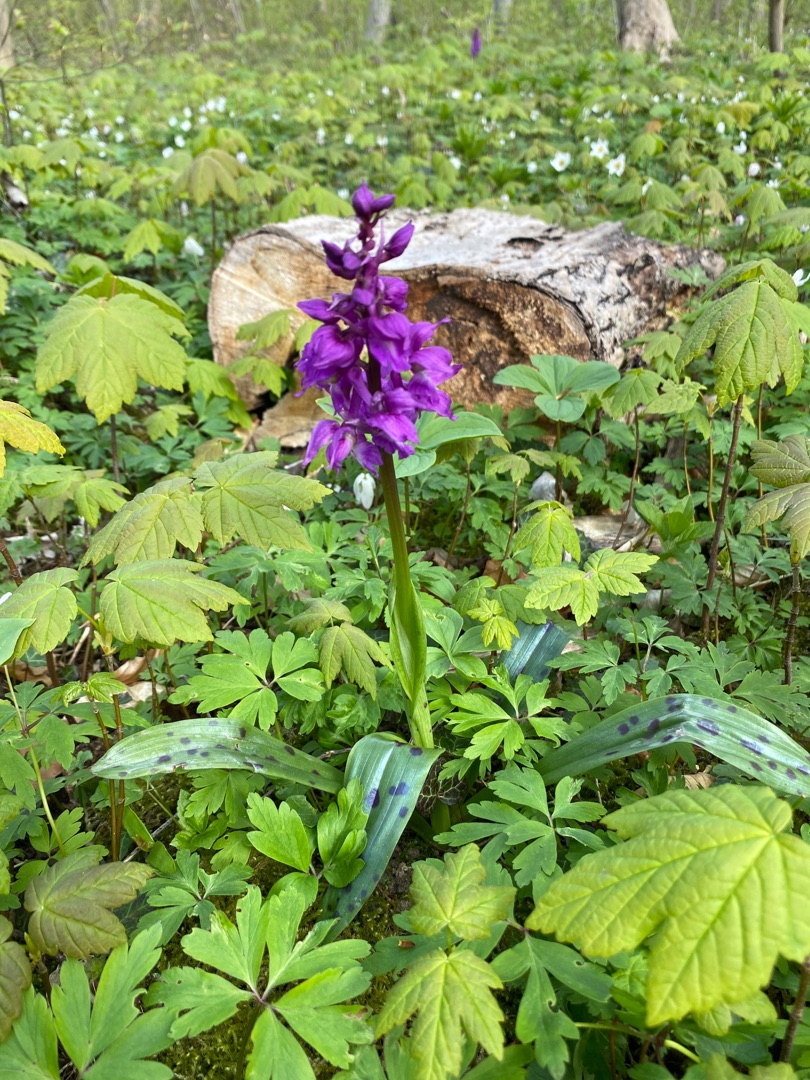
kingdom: Plantae
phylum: Tracheophyta
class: Liliopsida
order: Asparagales
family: Orchidaceae
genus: Orchis
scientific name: Orchis mascula
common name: Tyndakset gøgeurt
